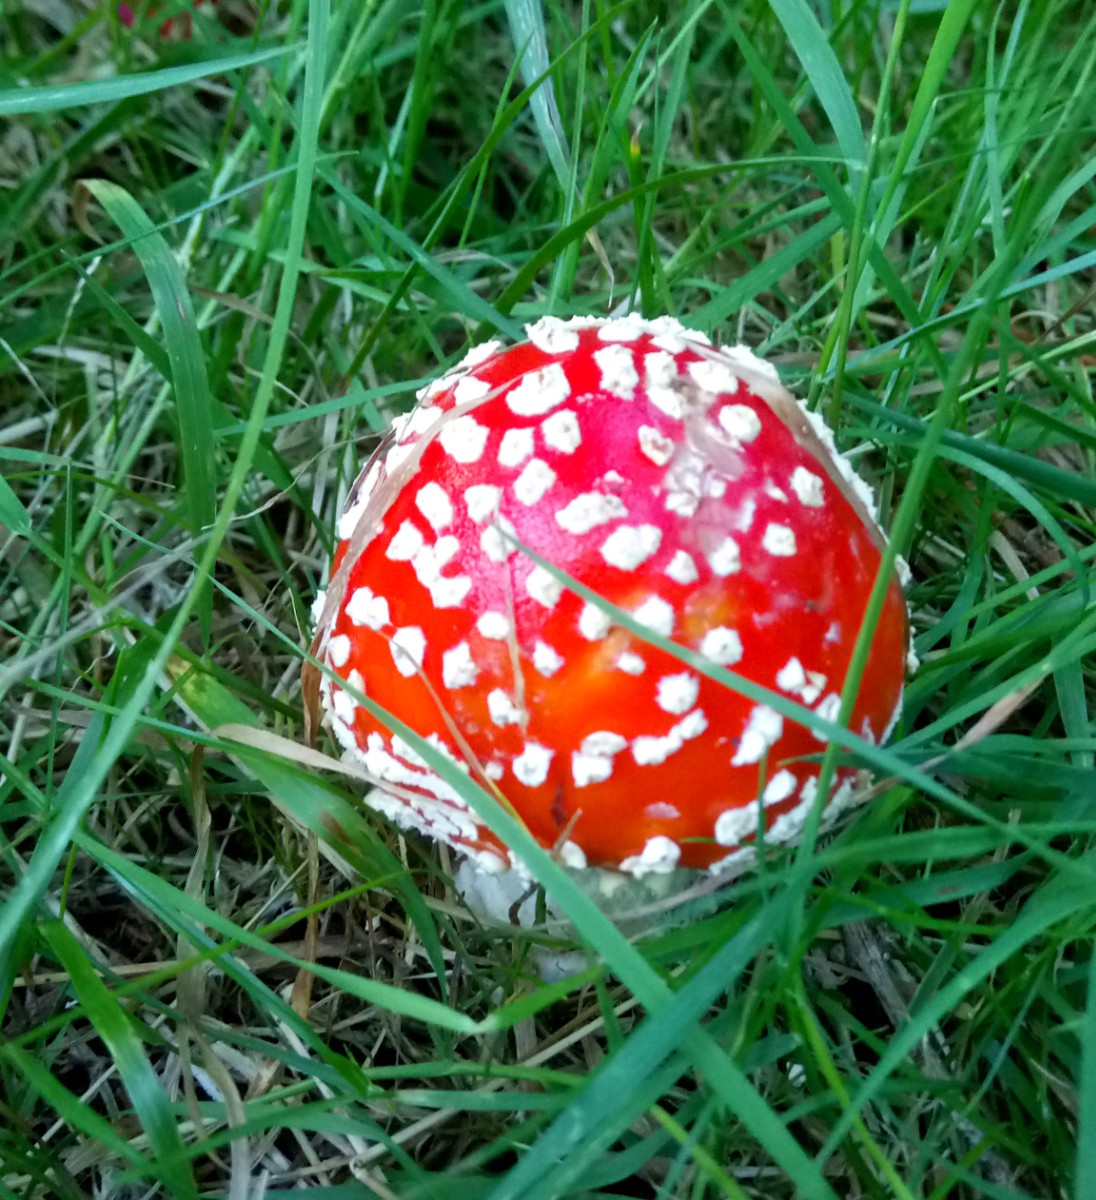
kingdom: Fungi
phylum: Basidiomycota
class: Agaricomycetes
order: Agaricales
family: Amanitaceae
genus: Amanita
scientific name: Amanita muscaria
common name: rød fluesvamp
